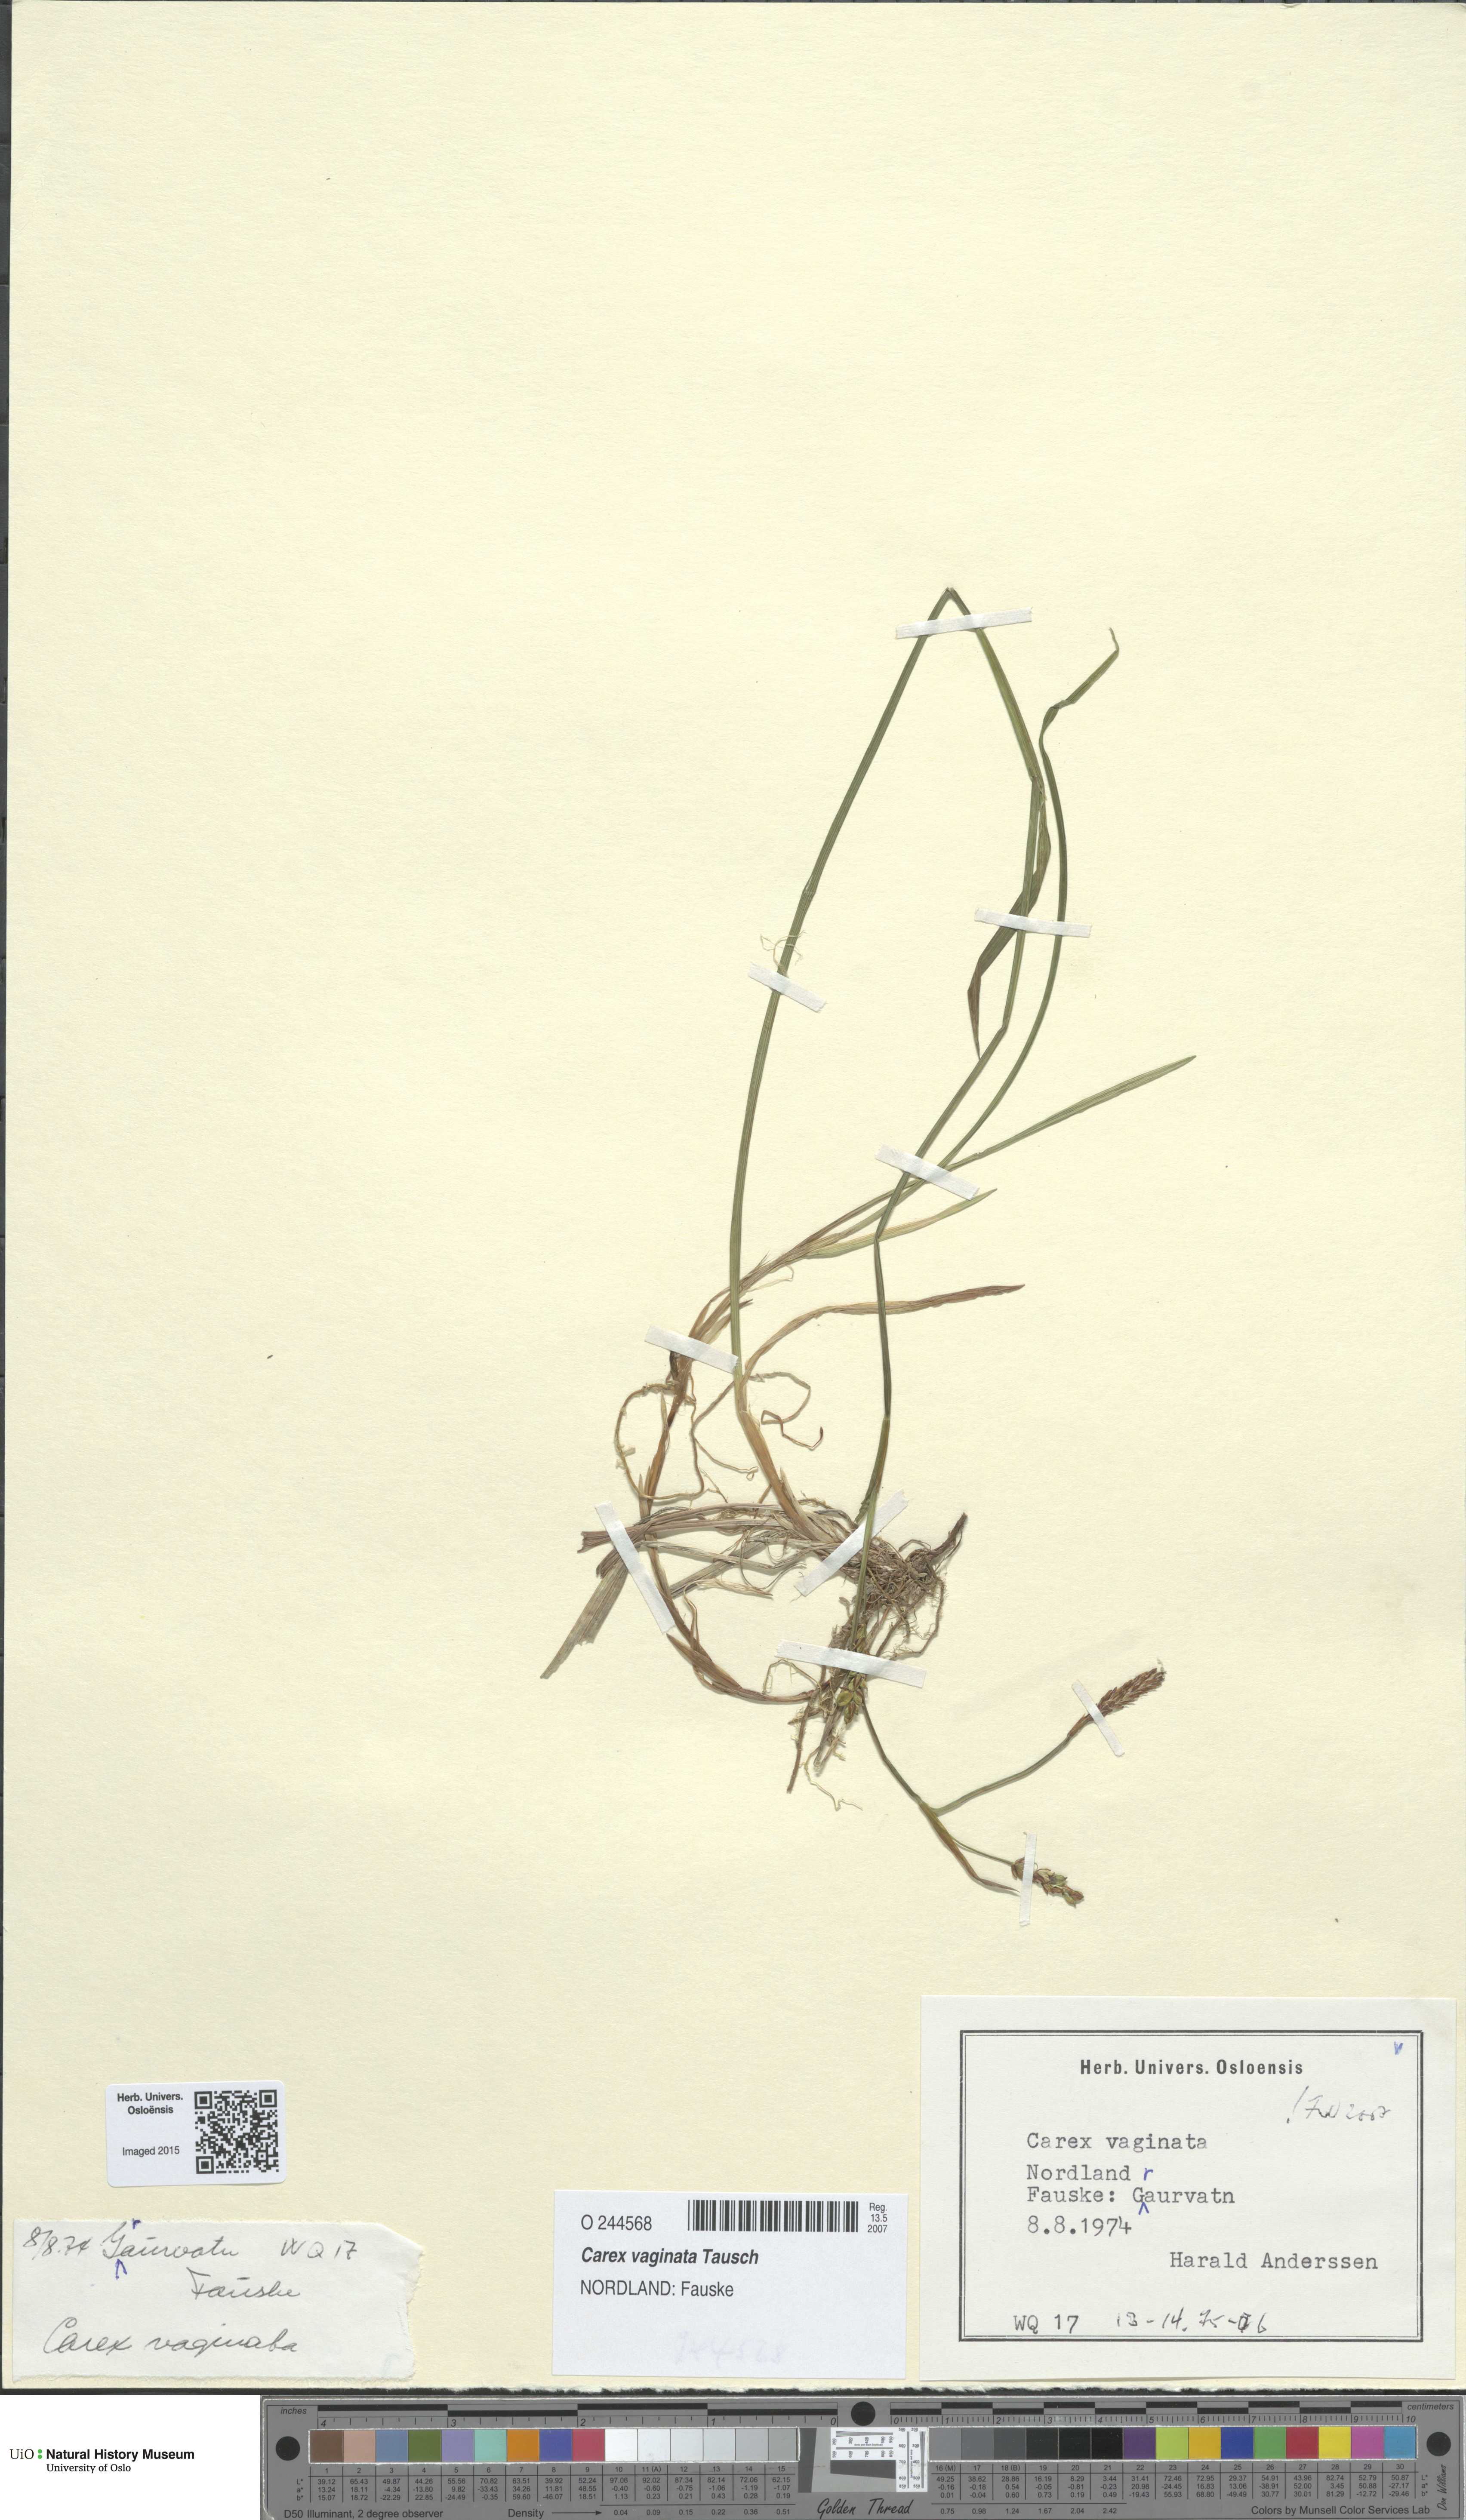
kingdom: Plantae
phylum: Tracheophyta
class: Liliopsida
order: Poales
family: Cyperaceae
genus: Carex
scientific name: Carex vaginata
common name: Sheathed sedge
